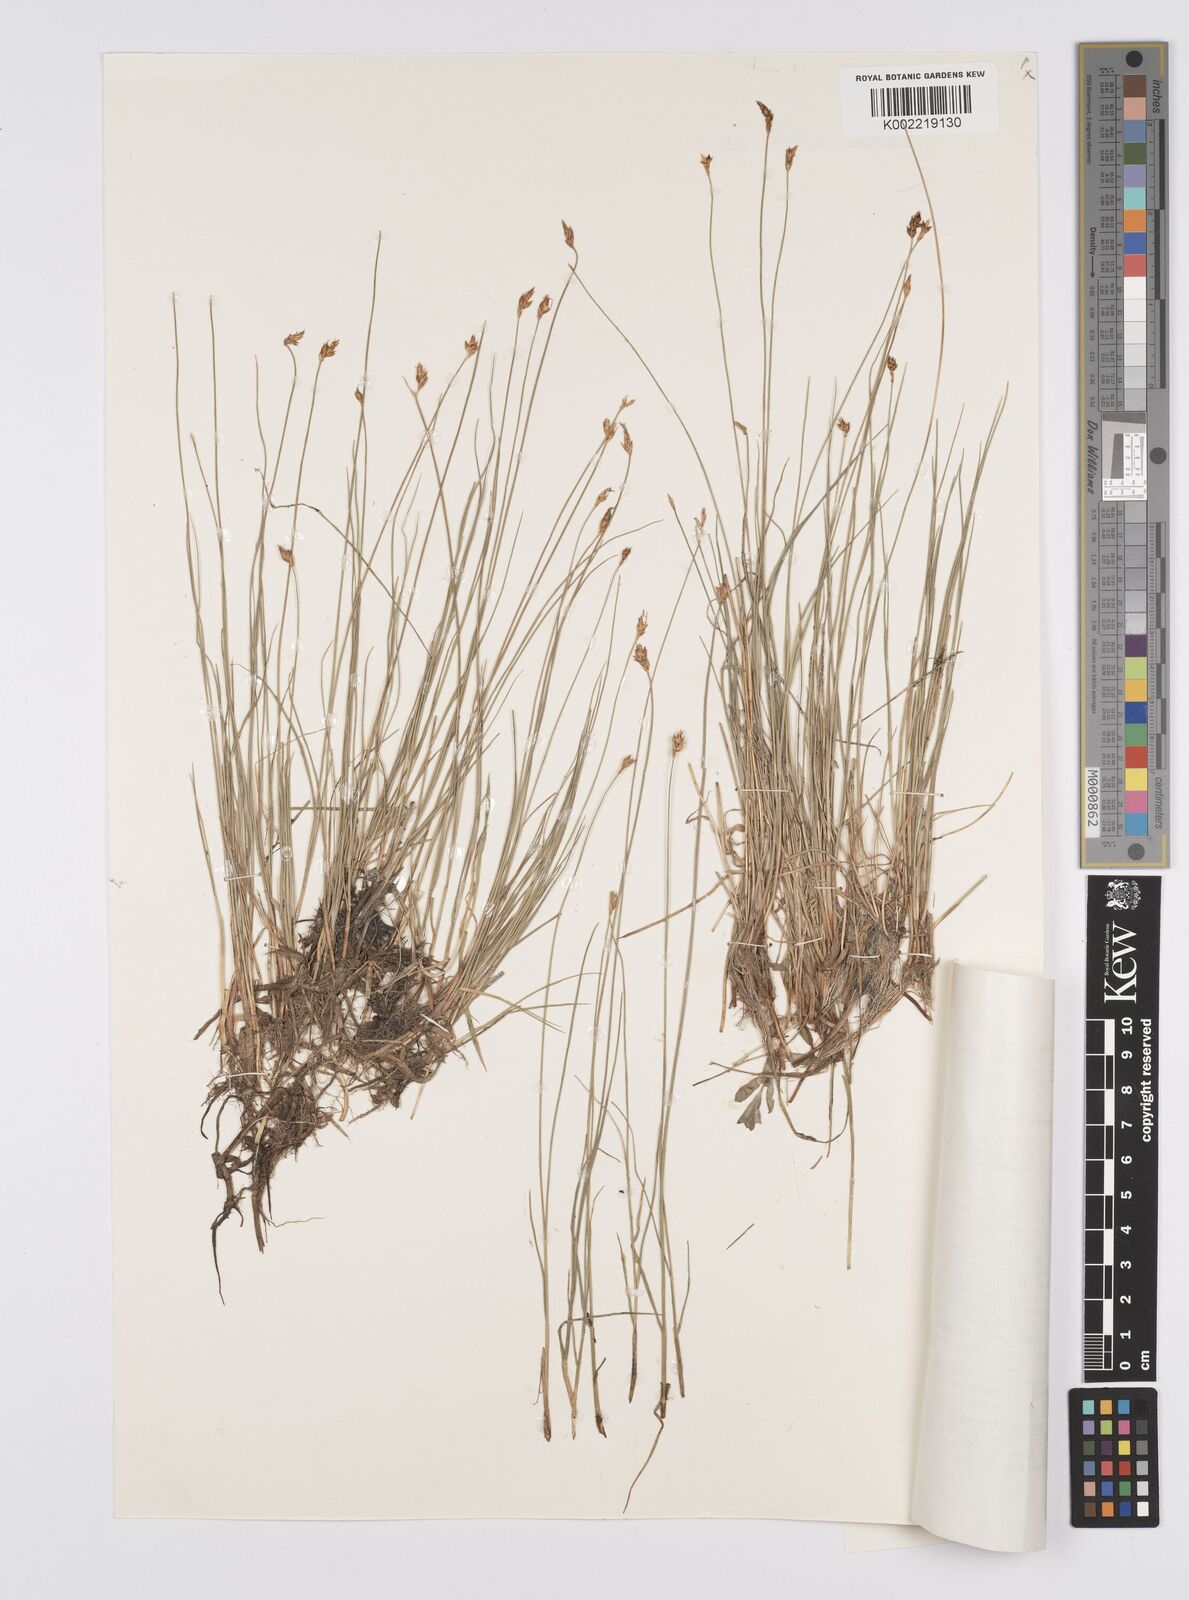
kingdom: Plantae
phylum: Tracheophyta
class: Liliopsida
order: Poales
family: Cyperaceae
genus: Carex
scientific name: Carex reptabunda
